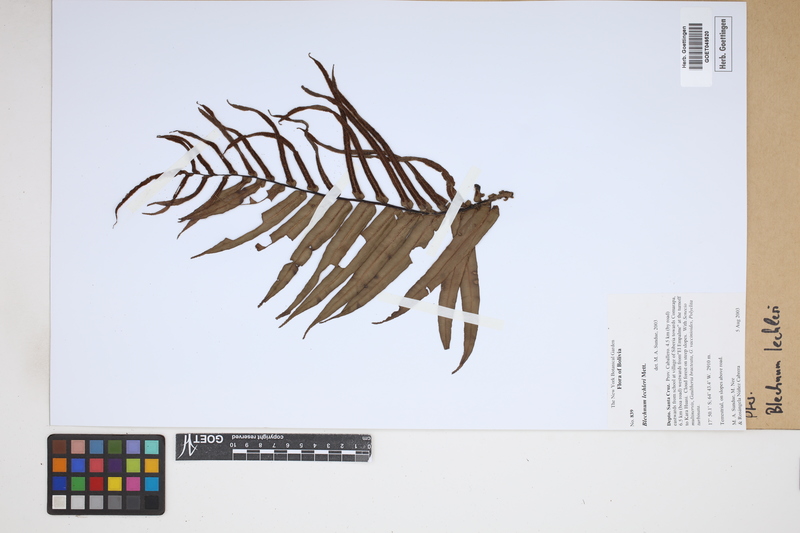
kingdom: Plantae
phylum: Tracheophyta
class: Polypodiopsida
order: Polypodiales
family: Blechnaceae
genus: Parablechnum
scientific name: Parablechnum lechleri
